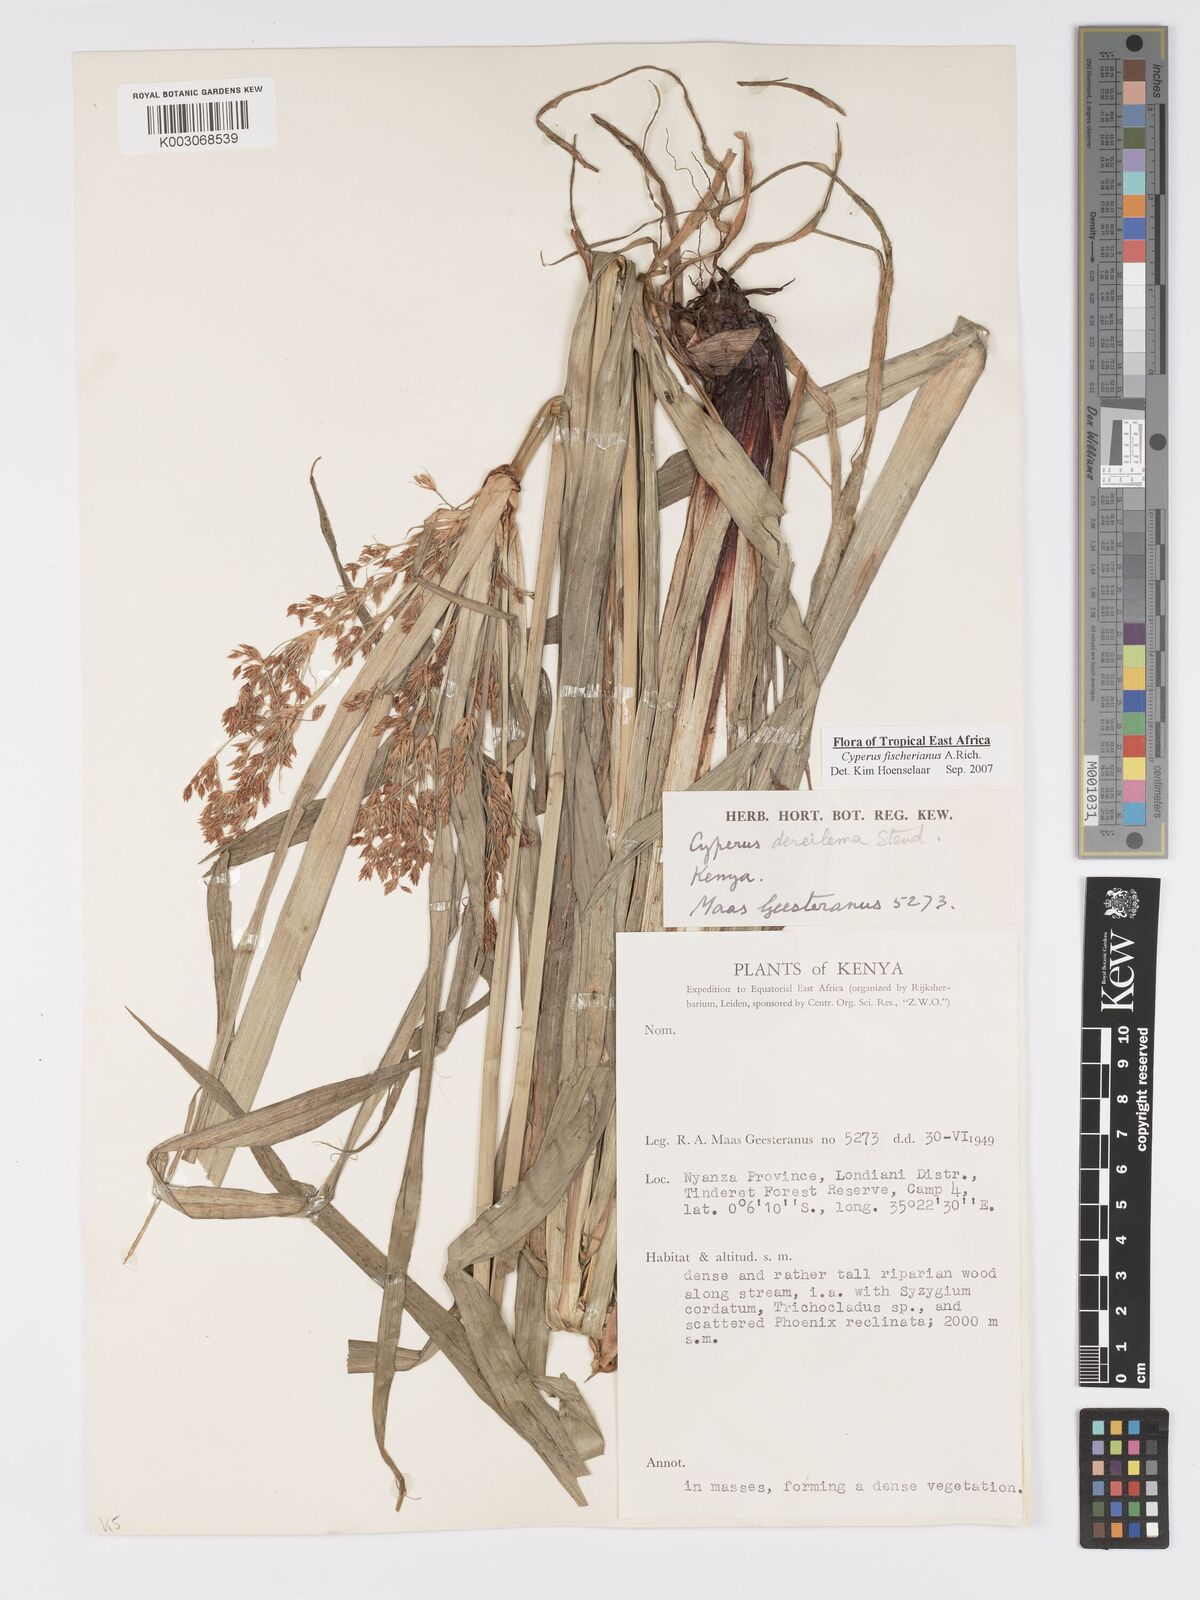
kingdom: Plantae
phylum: Tracheophyta
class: Liliopsida
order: Poales
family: Cyperaceae
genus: Cyperus
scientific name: Cyperus fischerianus
